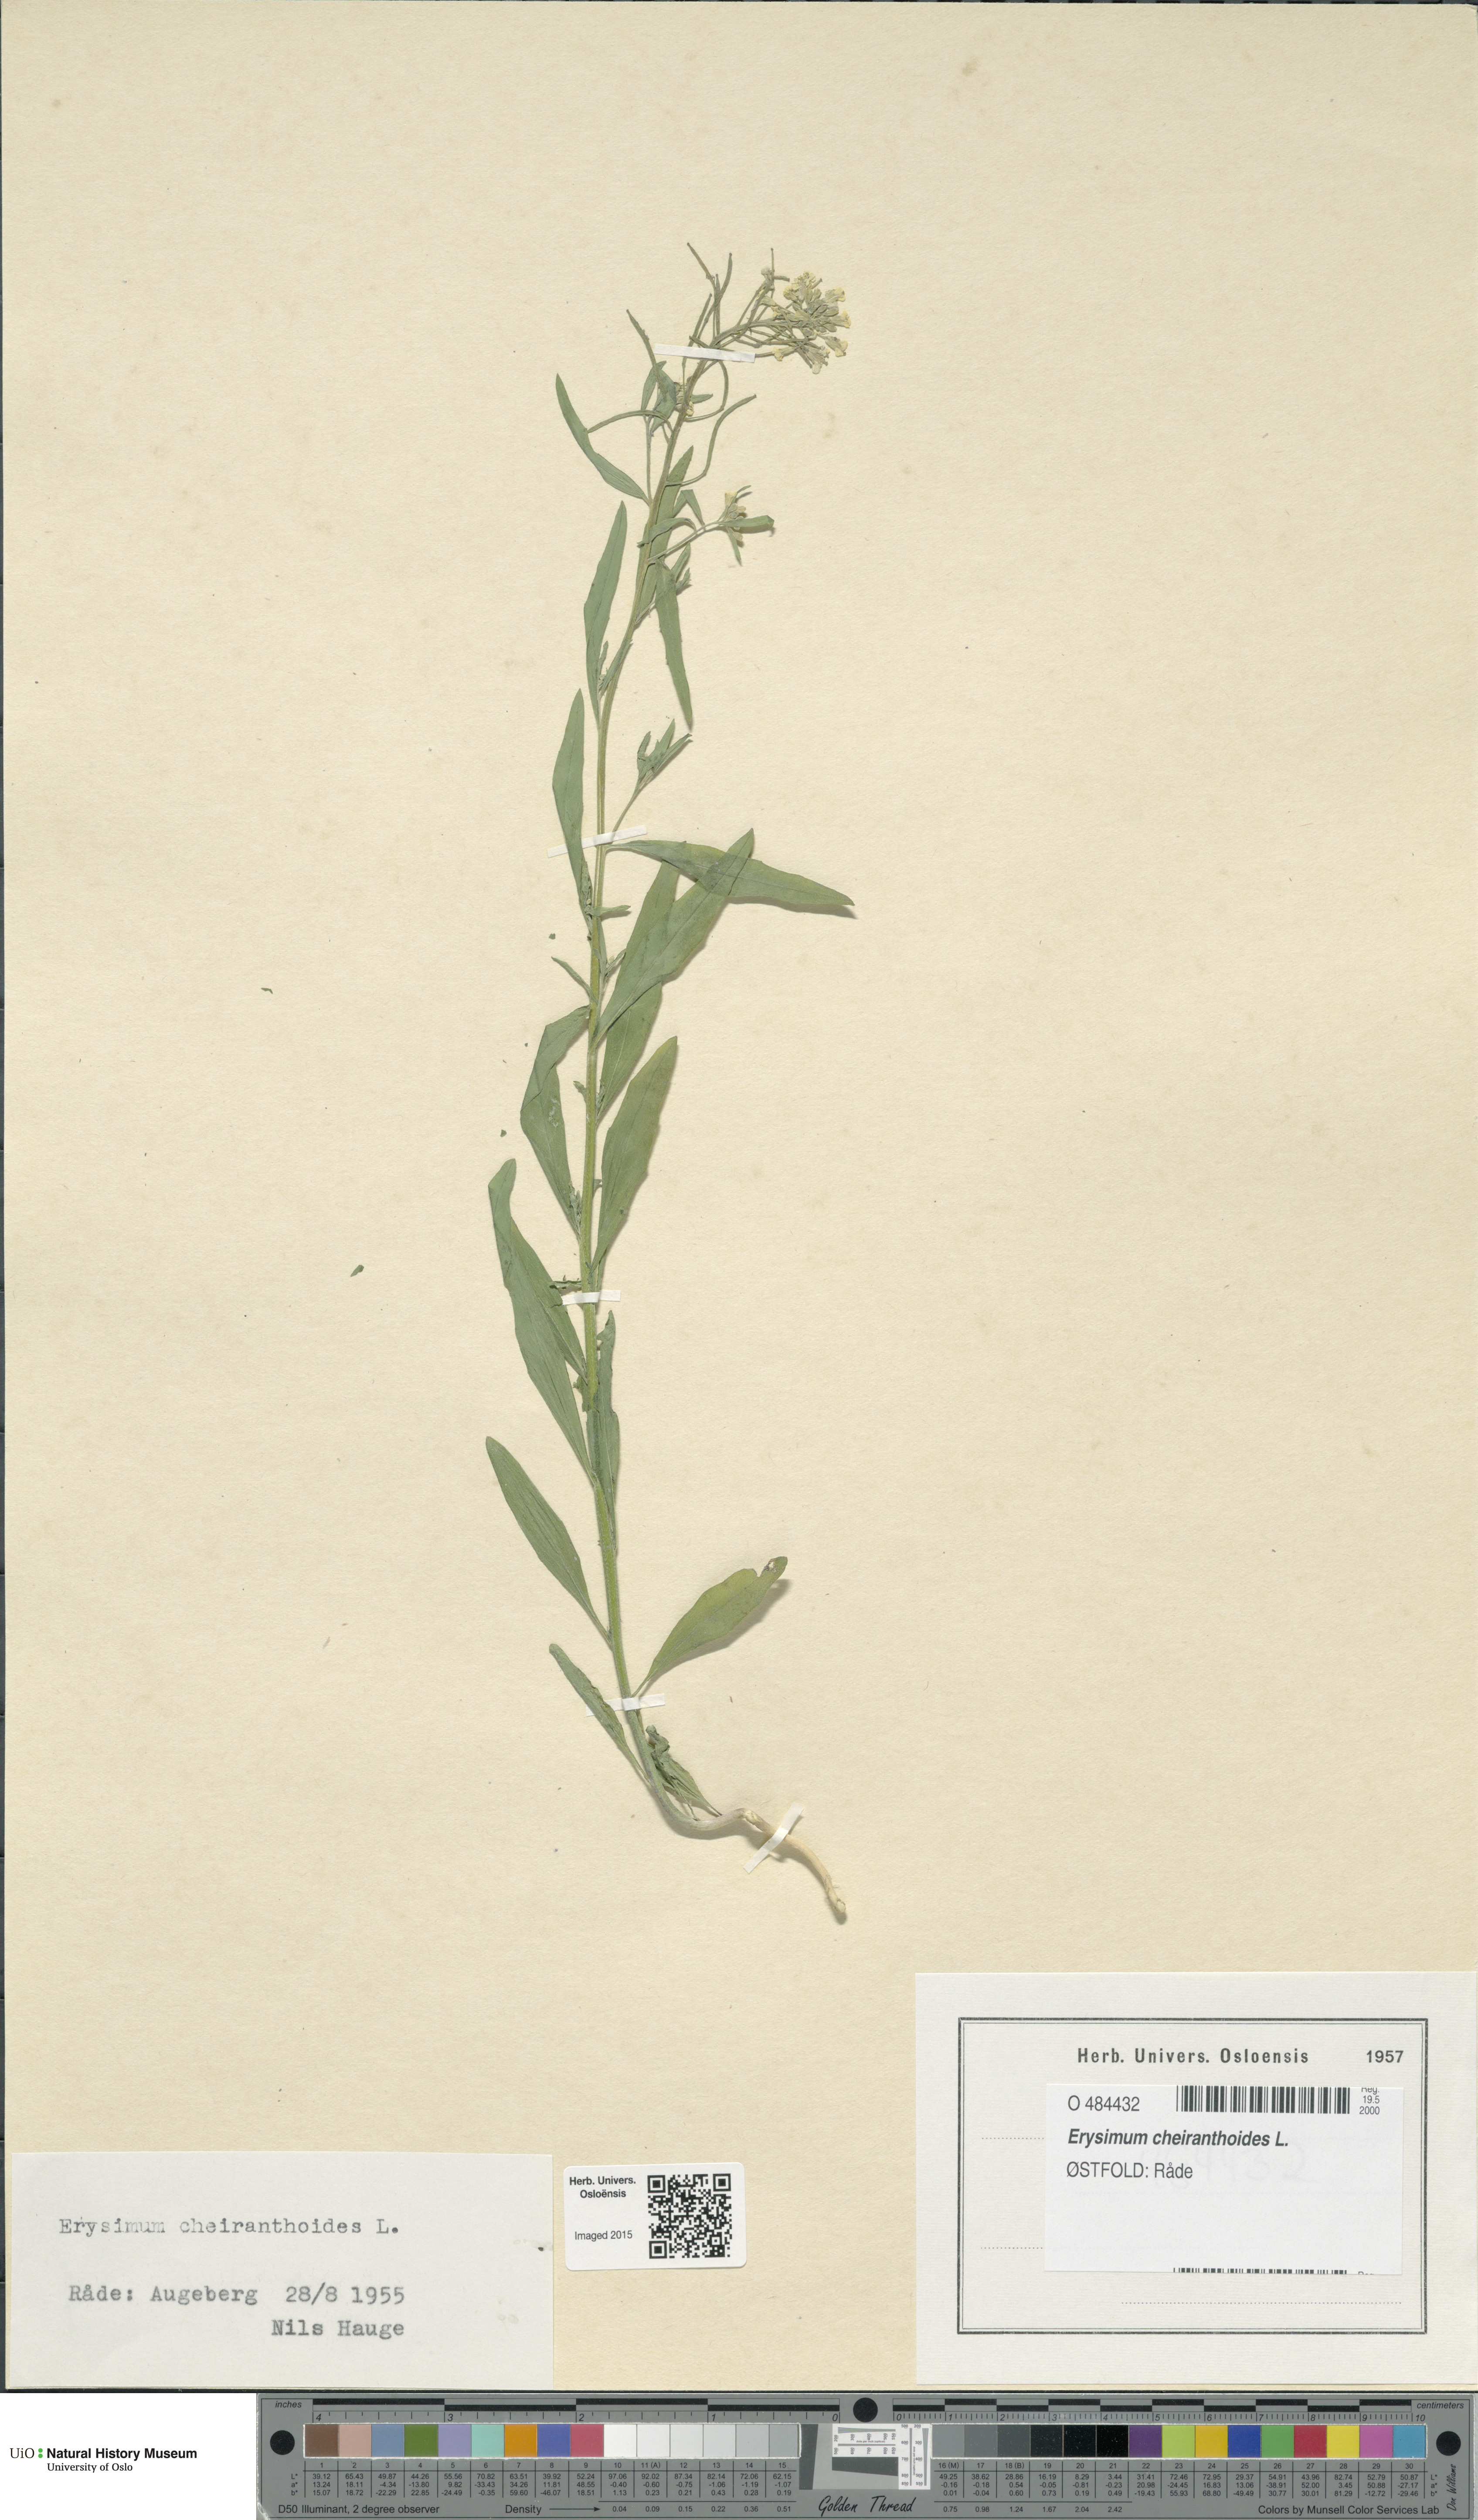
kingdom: Plantae
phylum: Tracheophyta
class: Magnoliopsida
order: Brassicales
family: Brassicaceae
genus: Erysimum
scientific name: Erysimum cheiranthoides
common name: Treacle mustard
